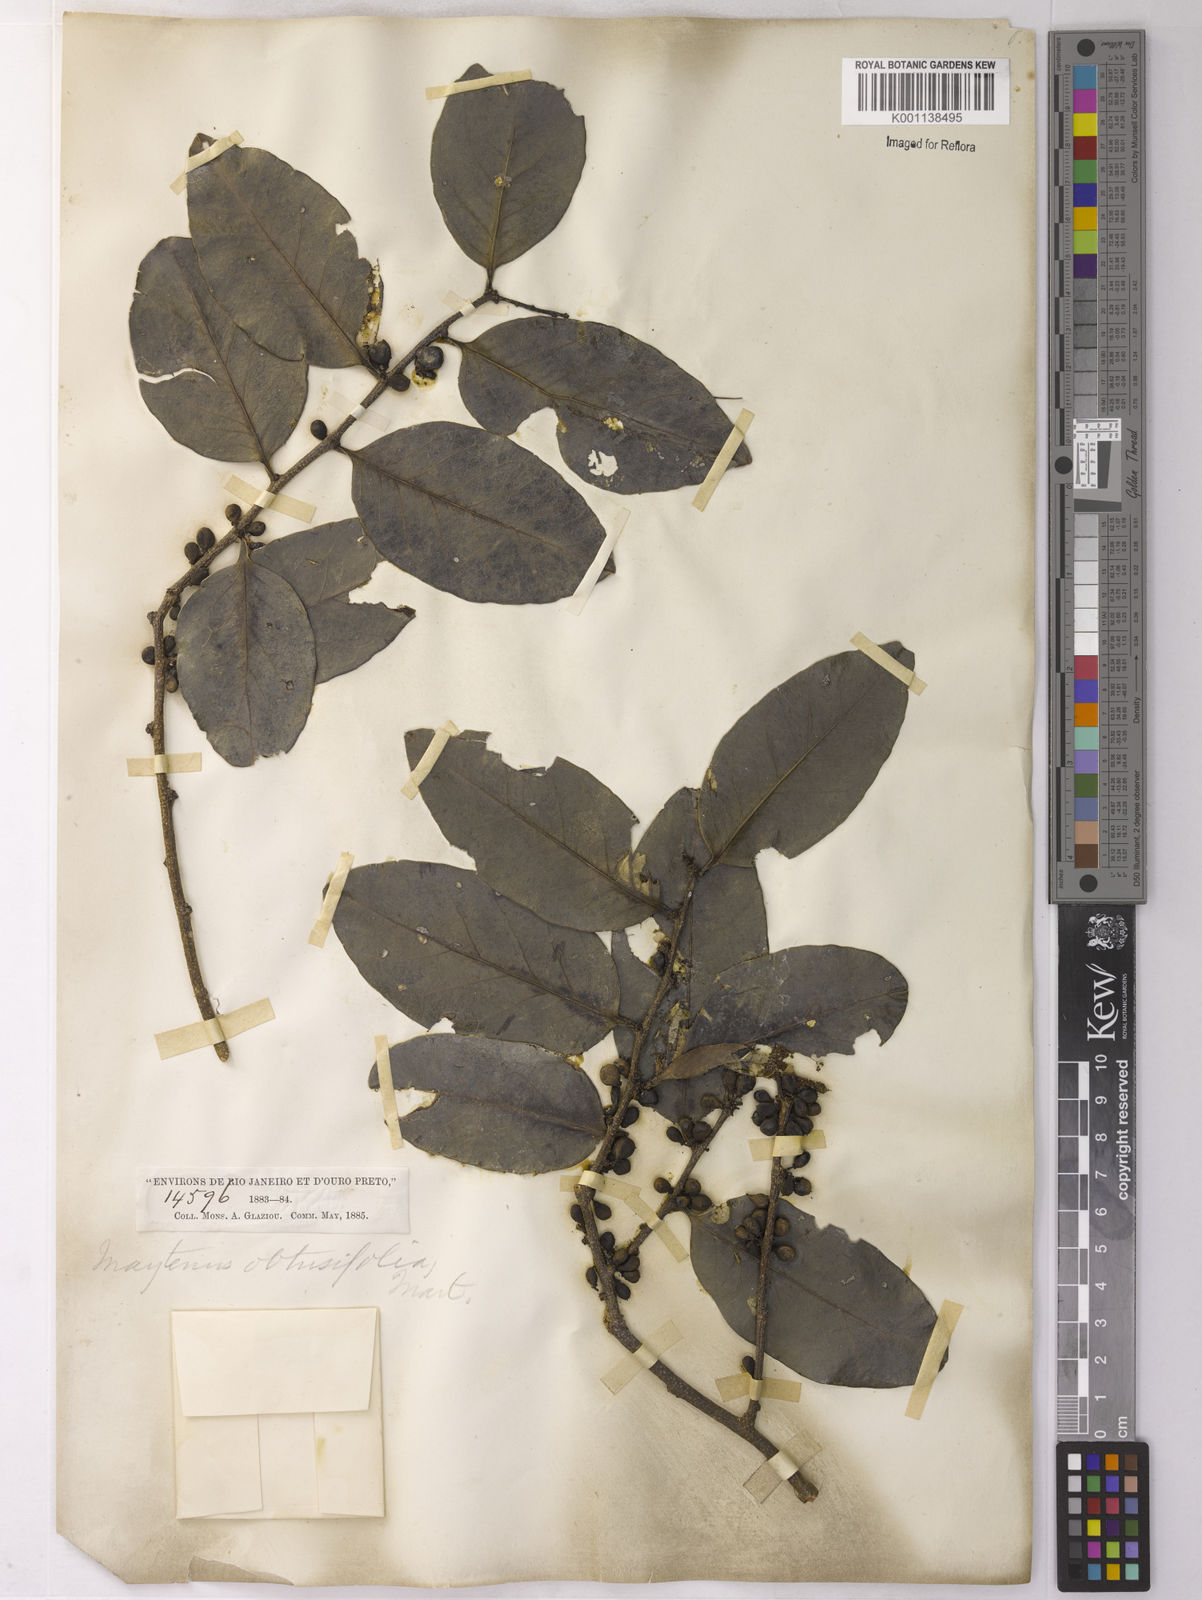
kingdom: Plantae
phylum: Tracheophyta
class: Magnoliopsida
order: Celastrales
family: Celastraceae
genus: Monteverdia
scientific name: Monteverdia obtusifolia
